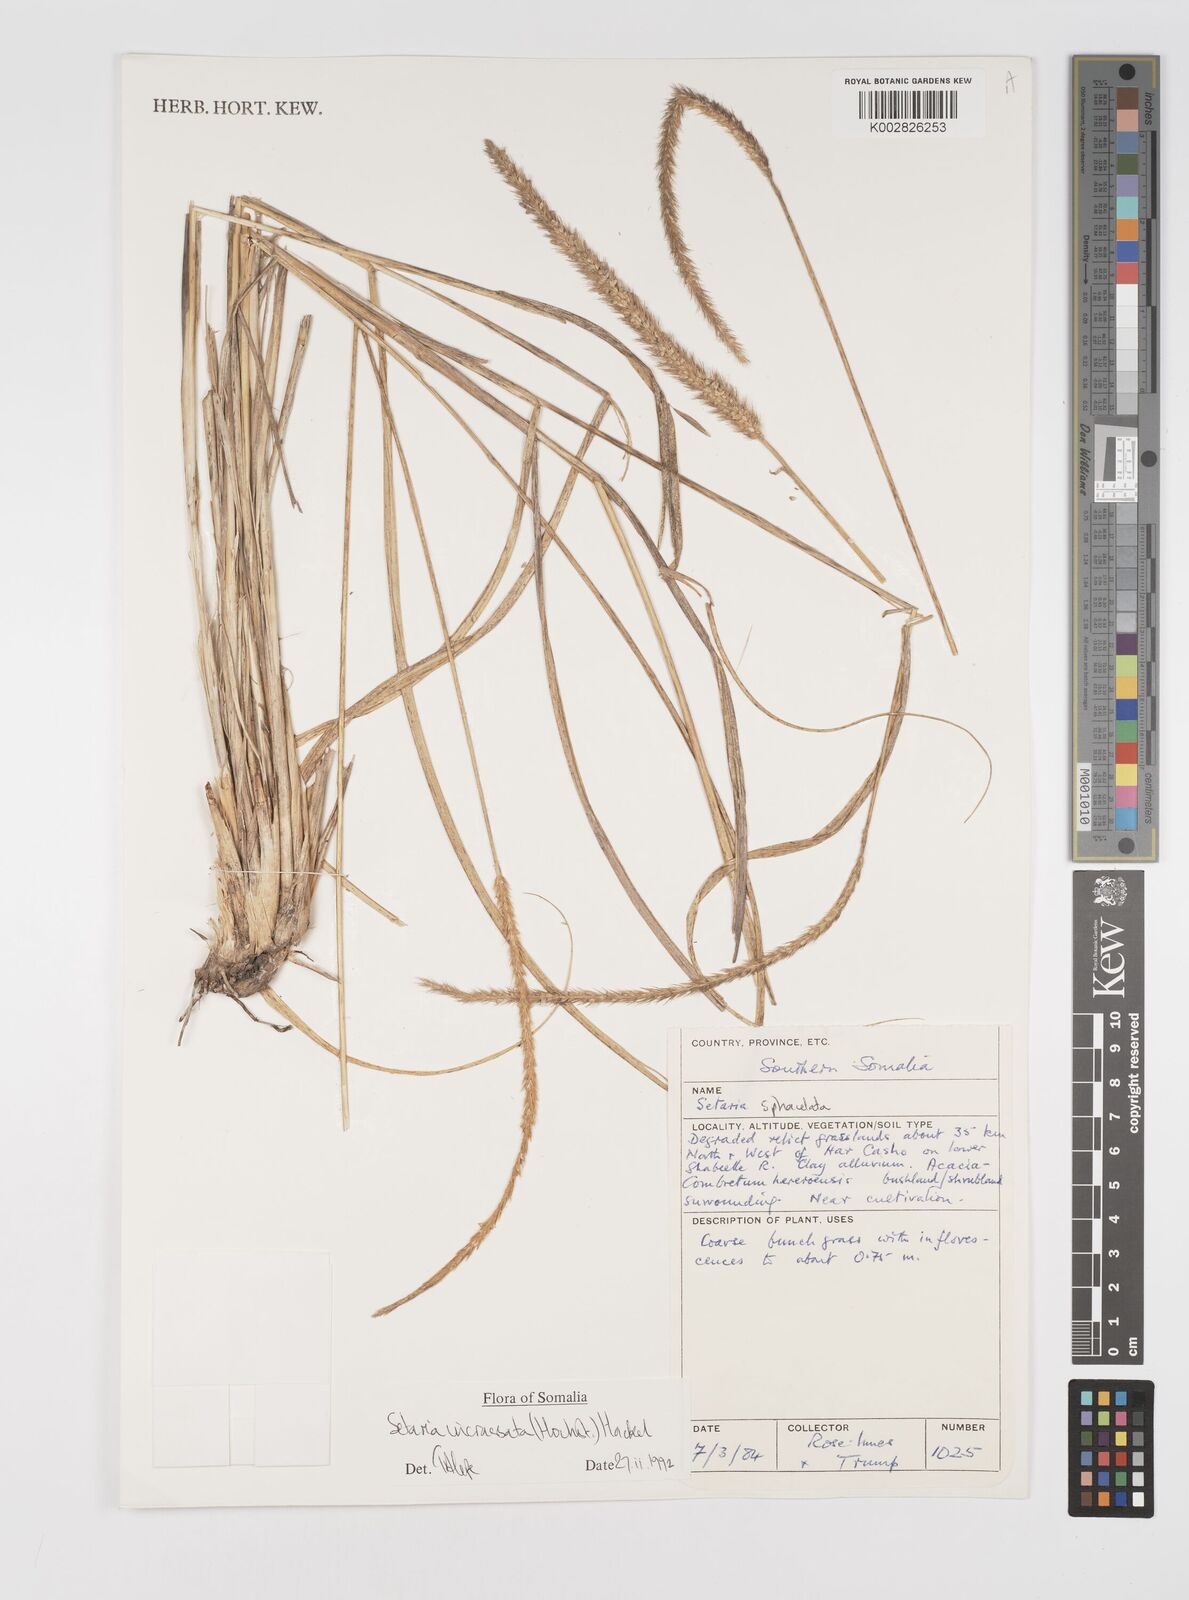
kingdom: Plantae
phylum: Tracheophyta
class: Liliopsida
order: Poales
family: Poaceae
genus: Setaria
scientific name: Setaria incrassata
